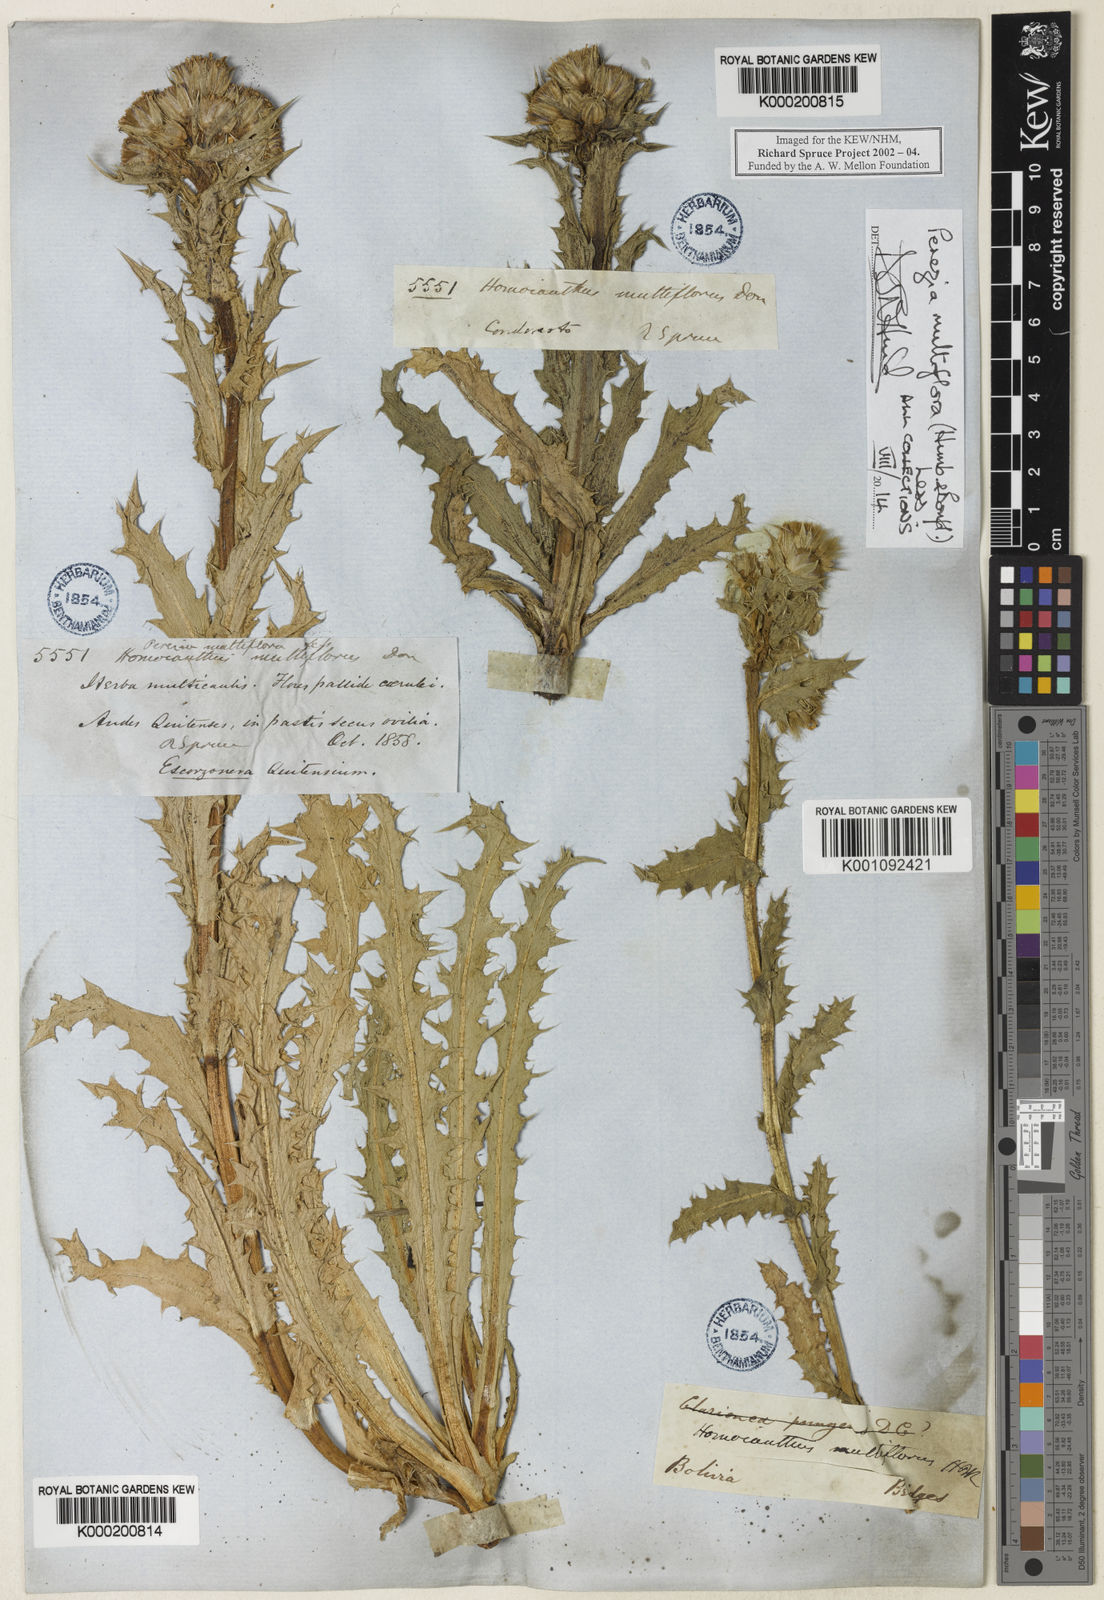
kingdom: Plantae
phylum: Tracheophyta
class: Magnoliopsida
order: Asterales
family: Asteraceae
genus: Perezia
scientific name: Perezia multiflora
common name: Perezia
